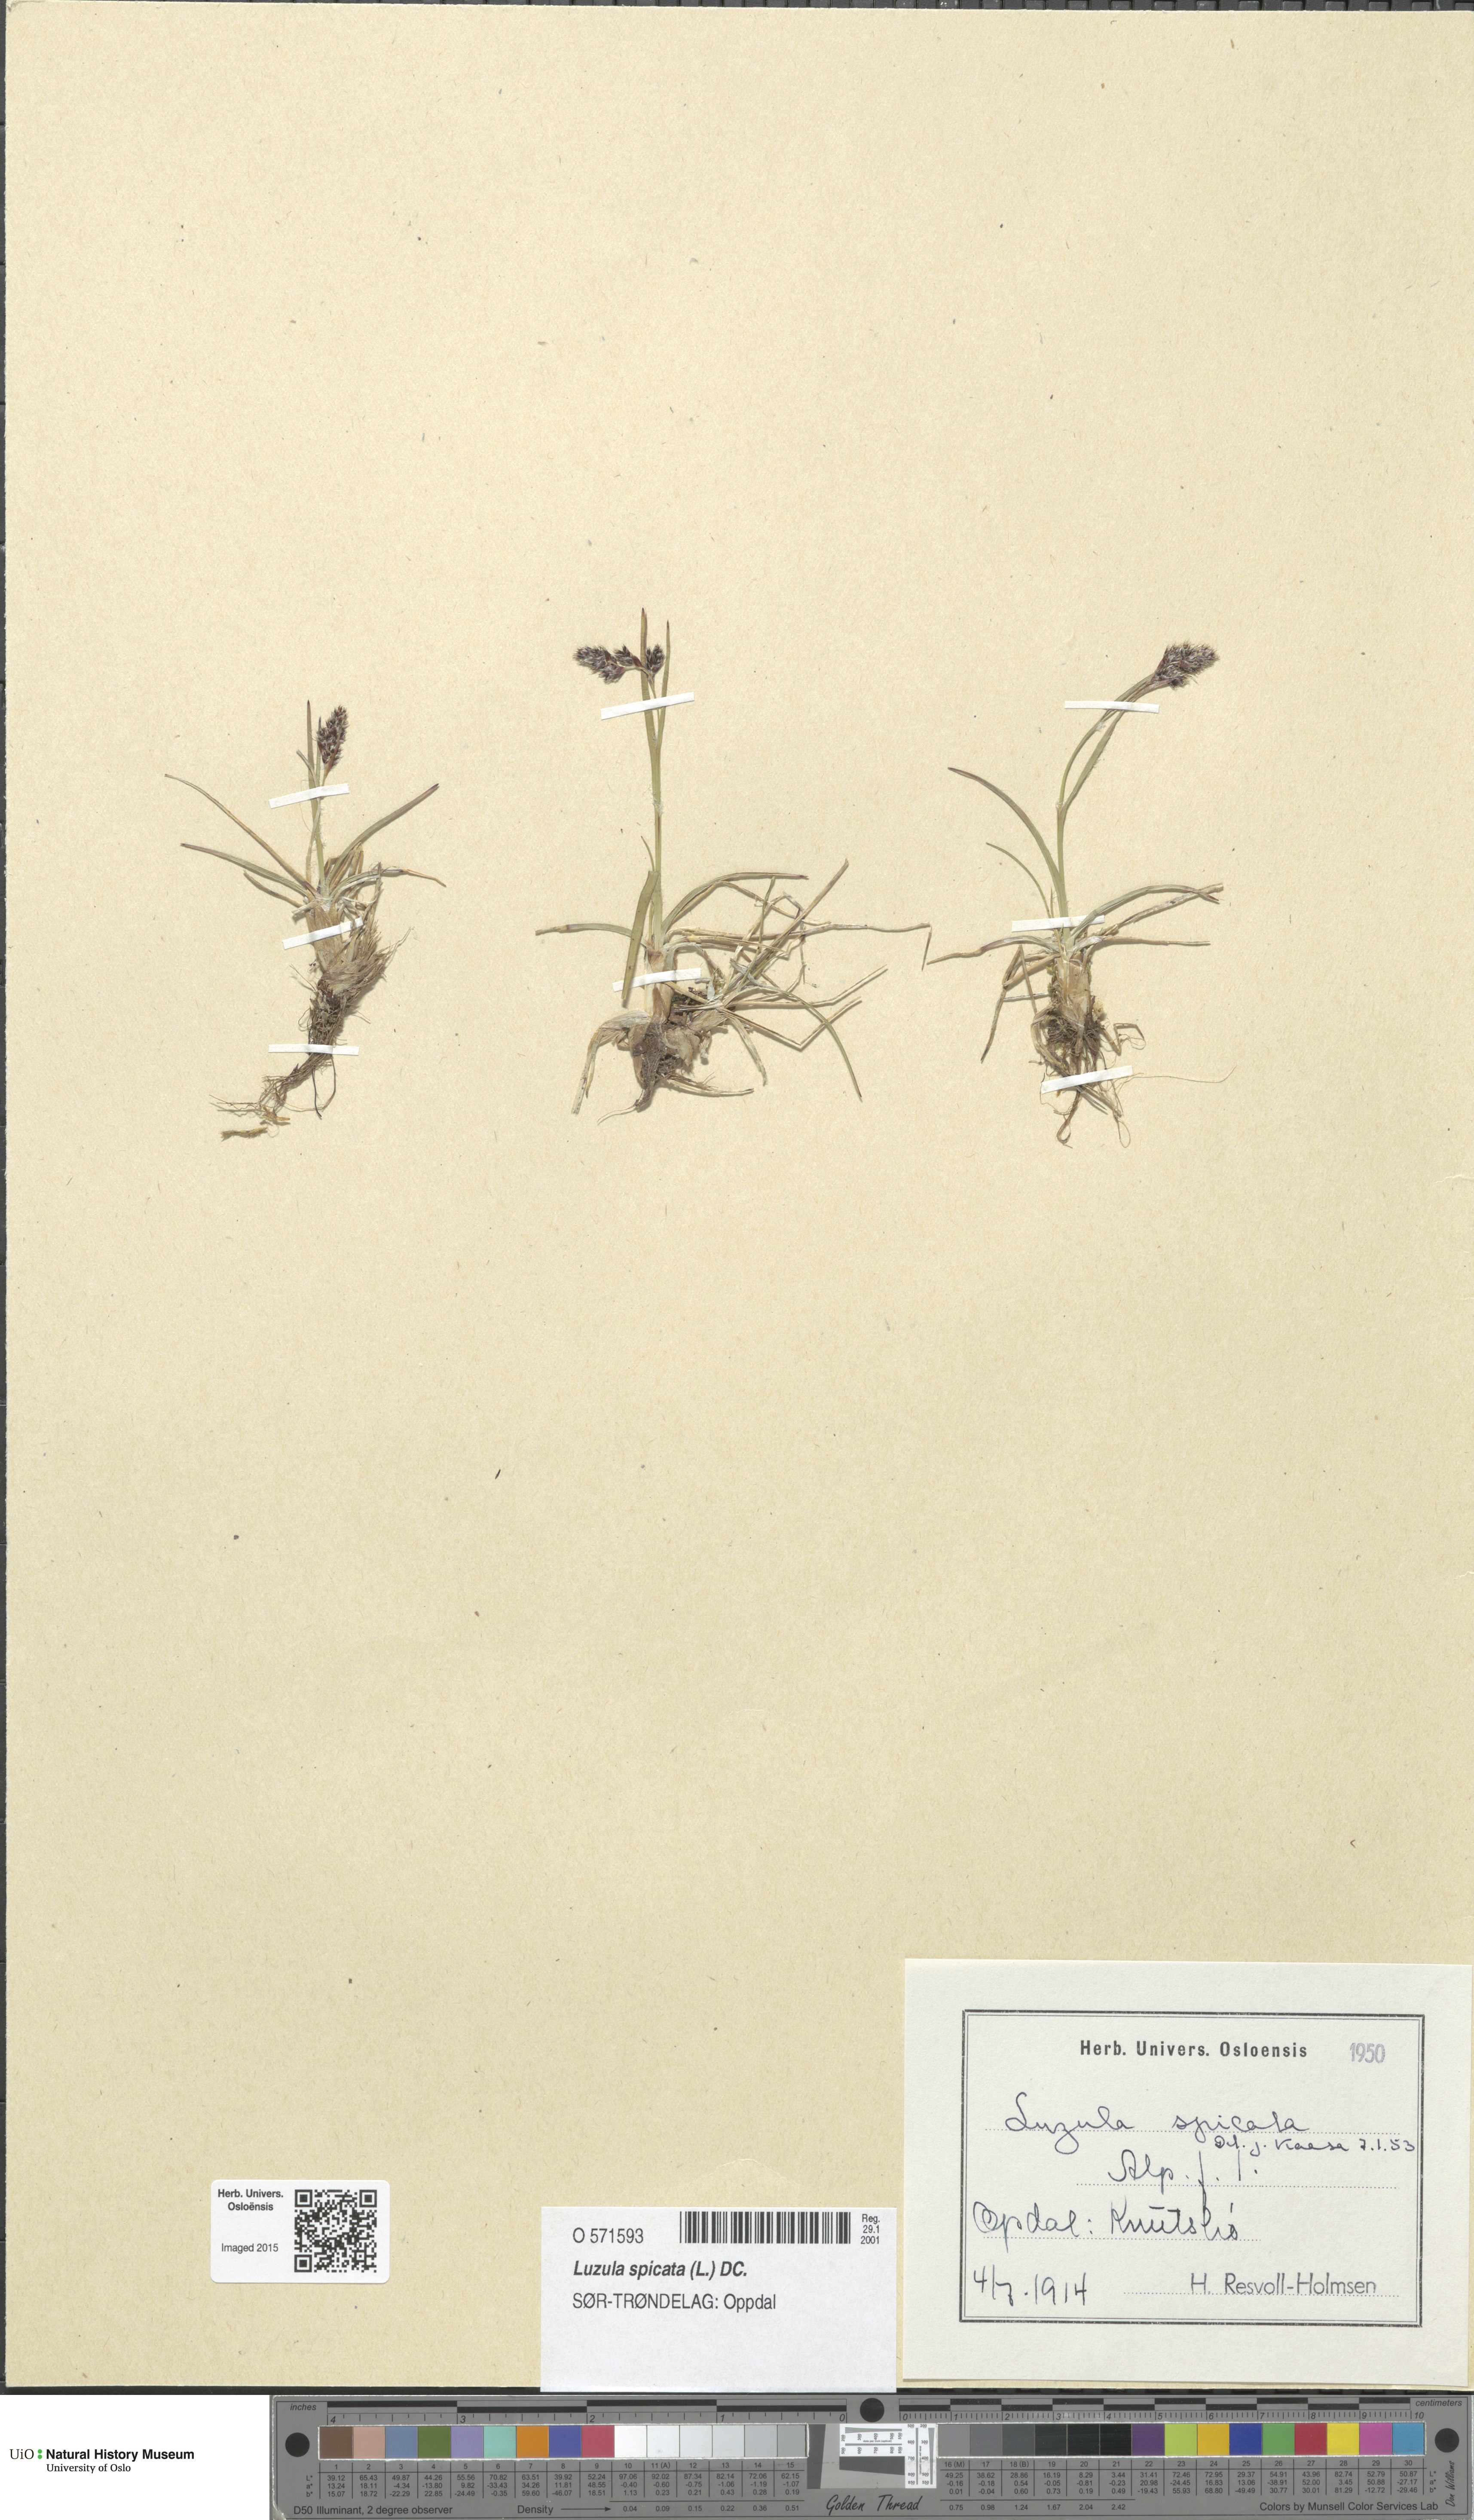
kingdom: Plantae
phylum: Tracheophyta
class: Liliopsida
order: Poales
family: Juncaceae
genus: Luzula
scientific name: Luzula spicata
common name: Spiked wood-rush
